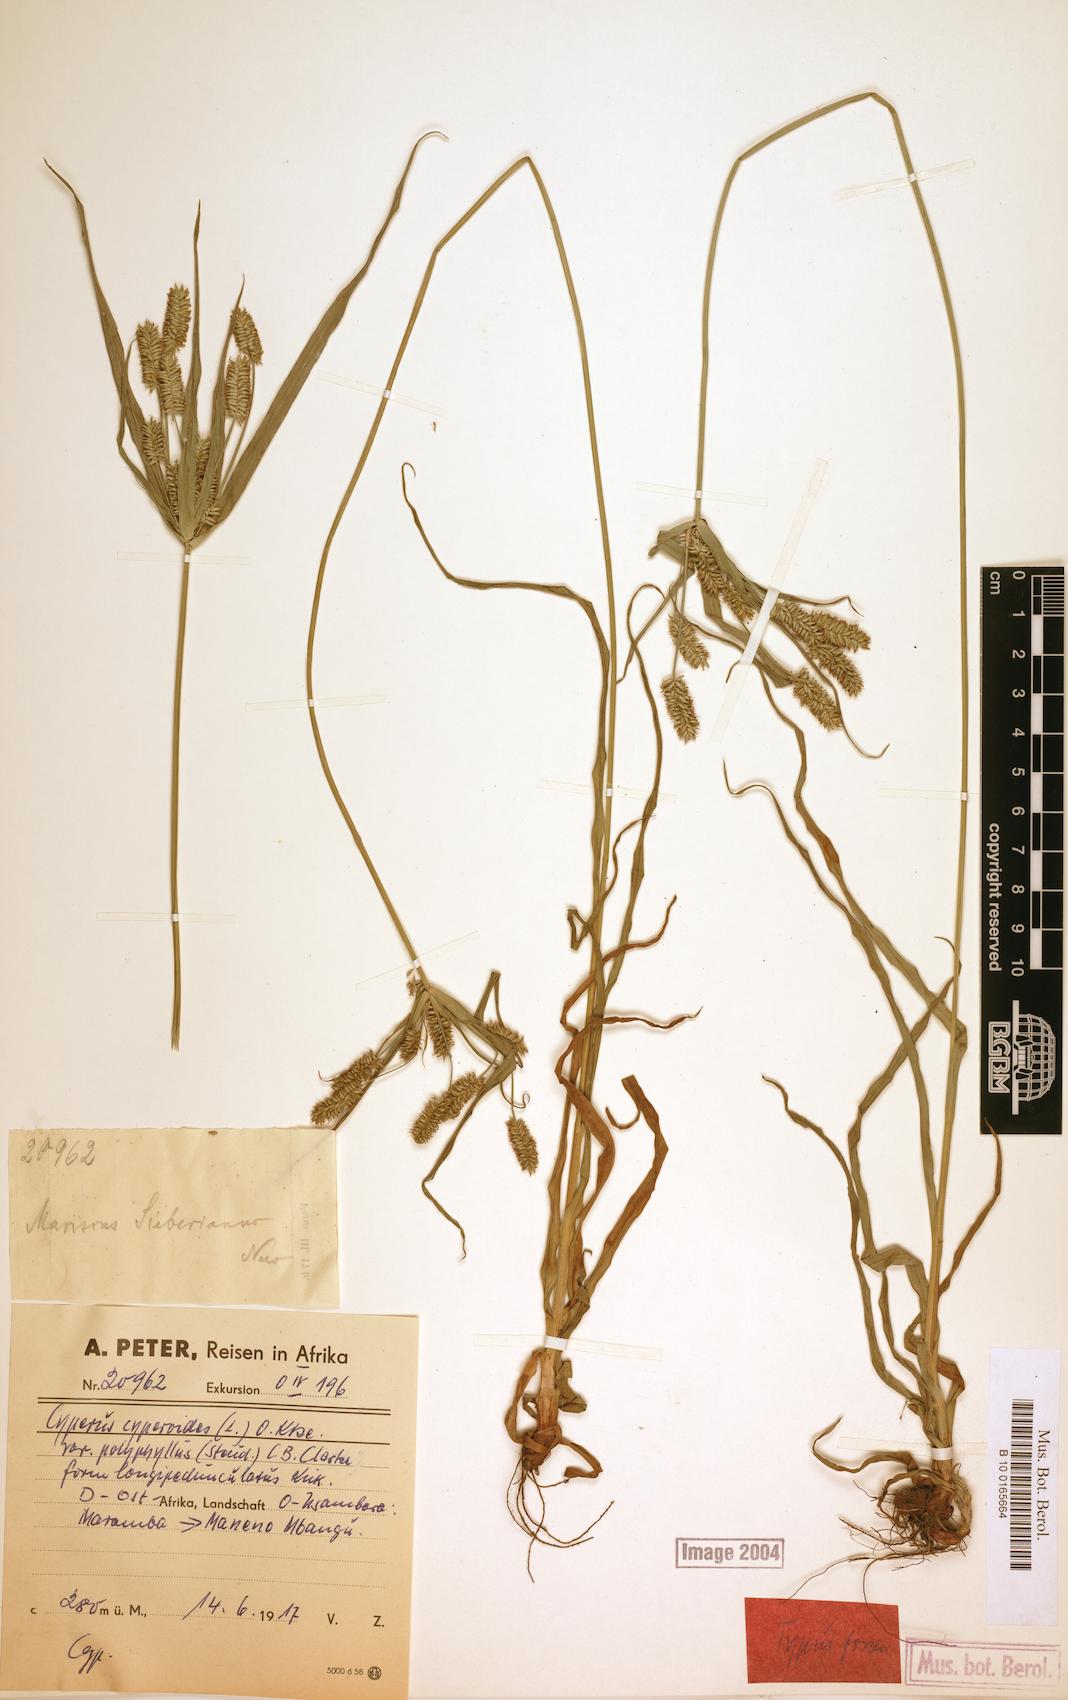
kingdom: Plantae
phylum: Tracheophyta
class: Liliopsida
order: Poales
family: Cyperaceae
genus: Cyperus
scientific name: Cyperus cyperoides
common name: Pacific island flat sedge
